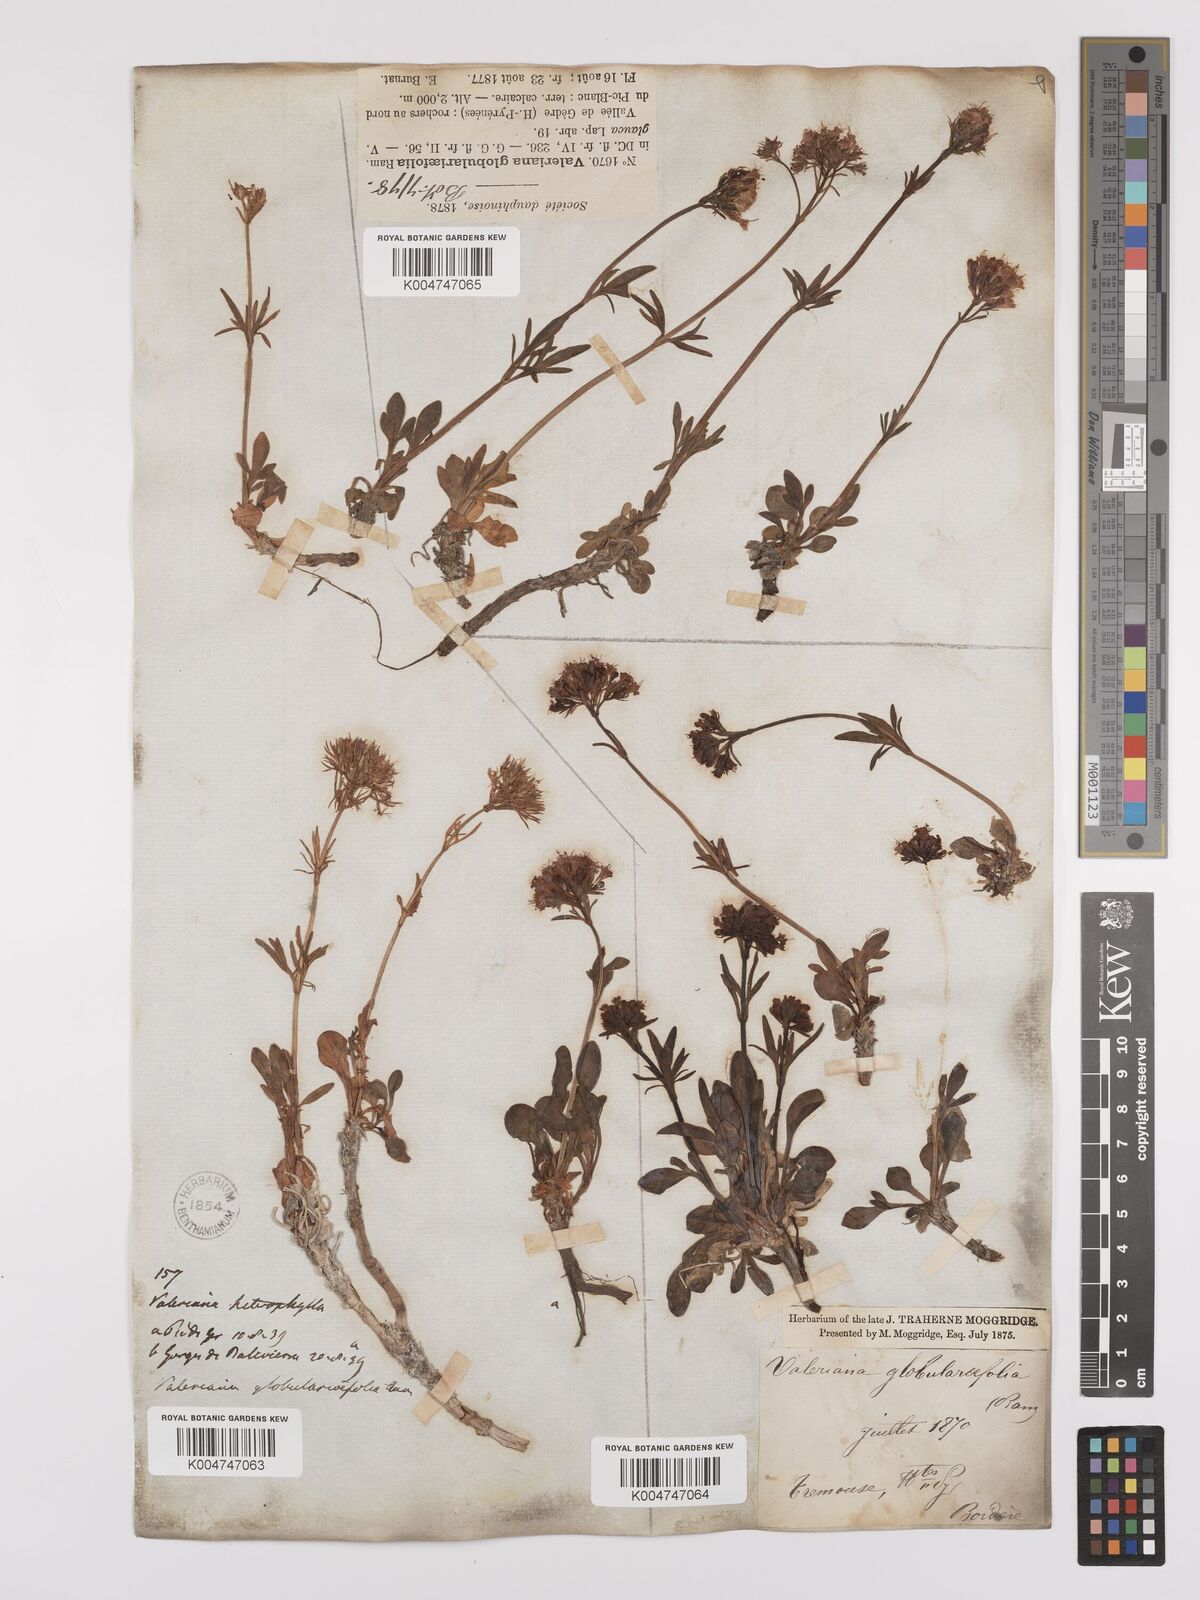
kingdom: Plantae
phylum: Tracheophyta
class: Magnoliopsida
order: Dipsacales
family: Caprifoliaceae
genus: Valeriana
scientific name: Valeriana apula
